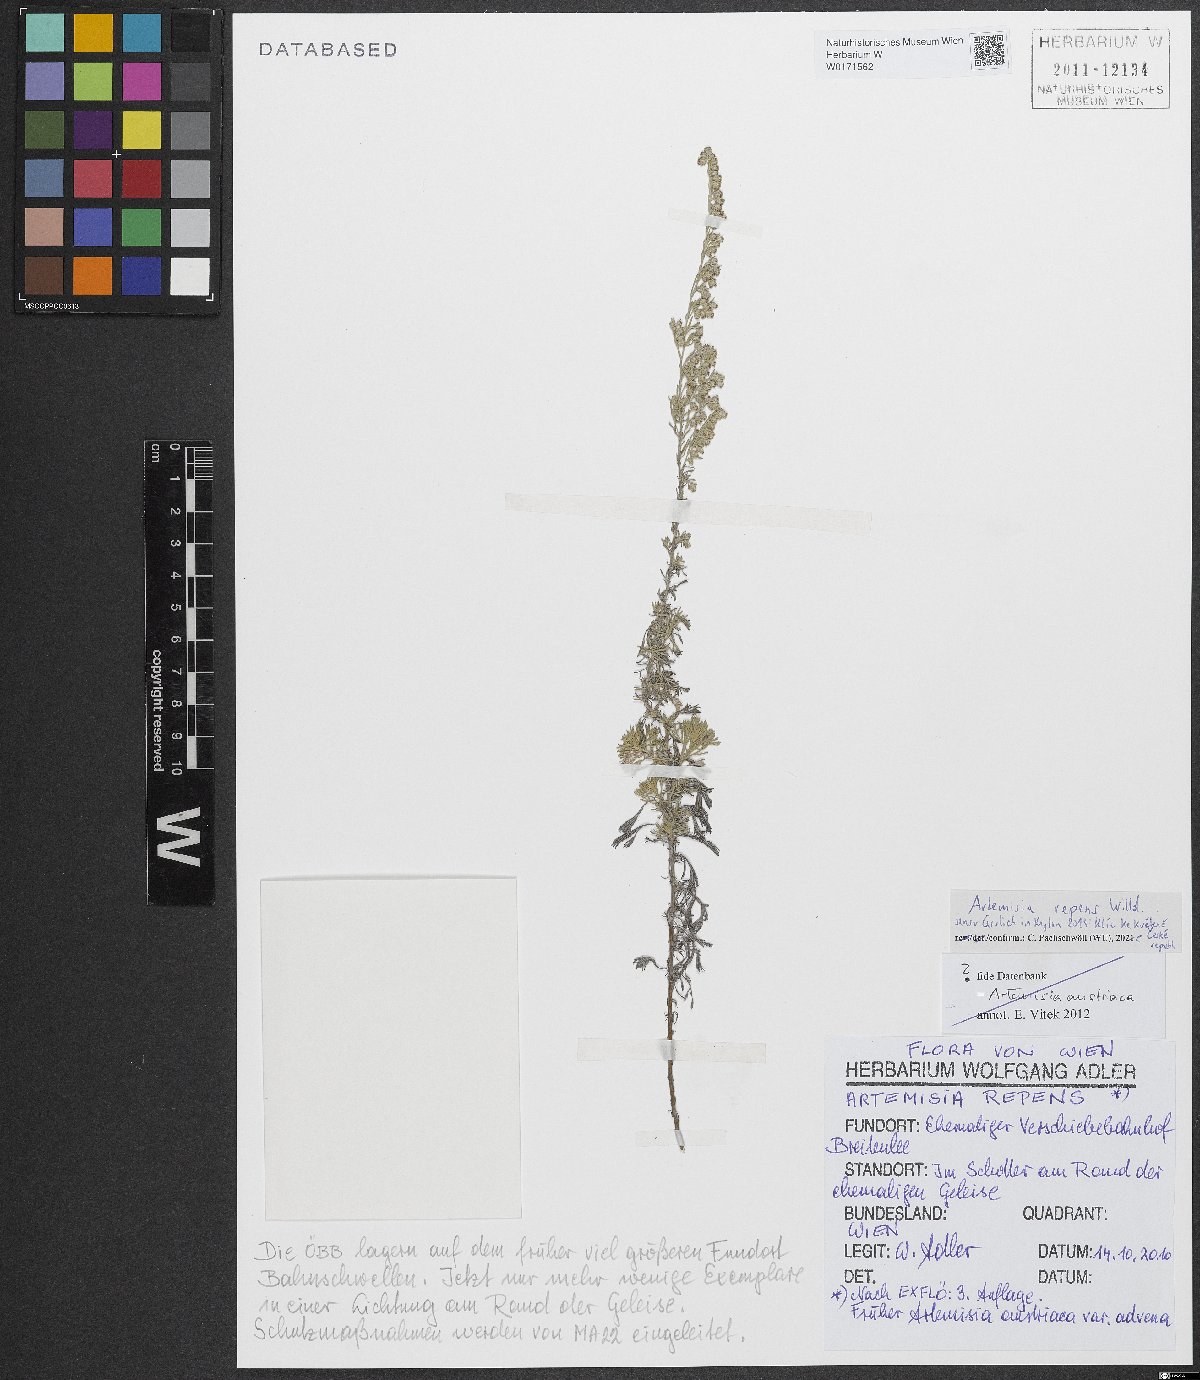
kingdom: Plantae
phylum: Tracheophyta
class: Magnoliopsida
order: Asterales
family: Asteraceae
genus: Artemisia
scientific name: Artemisia repens
